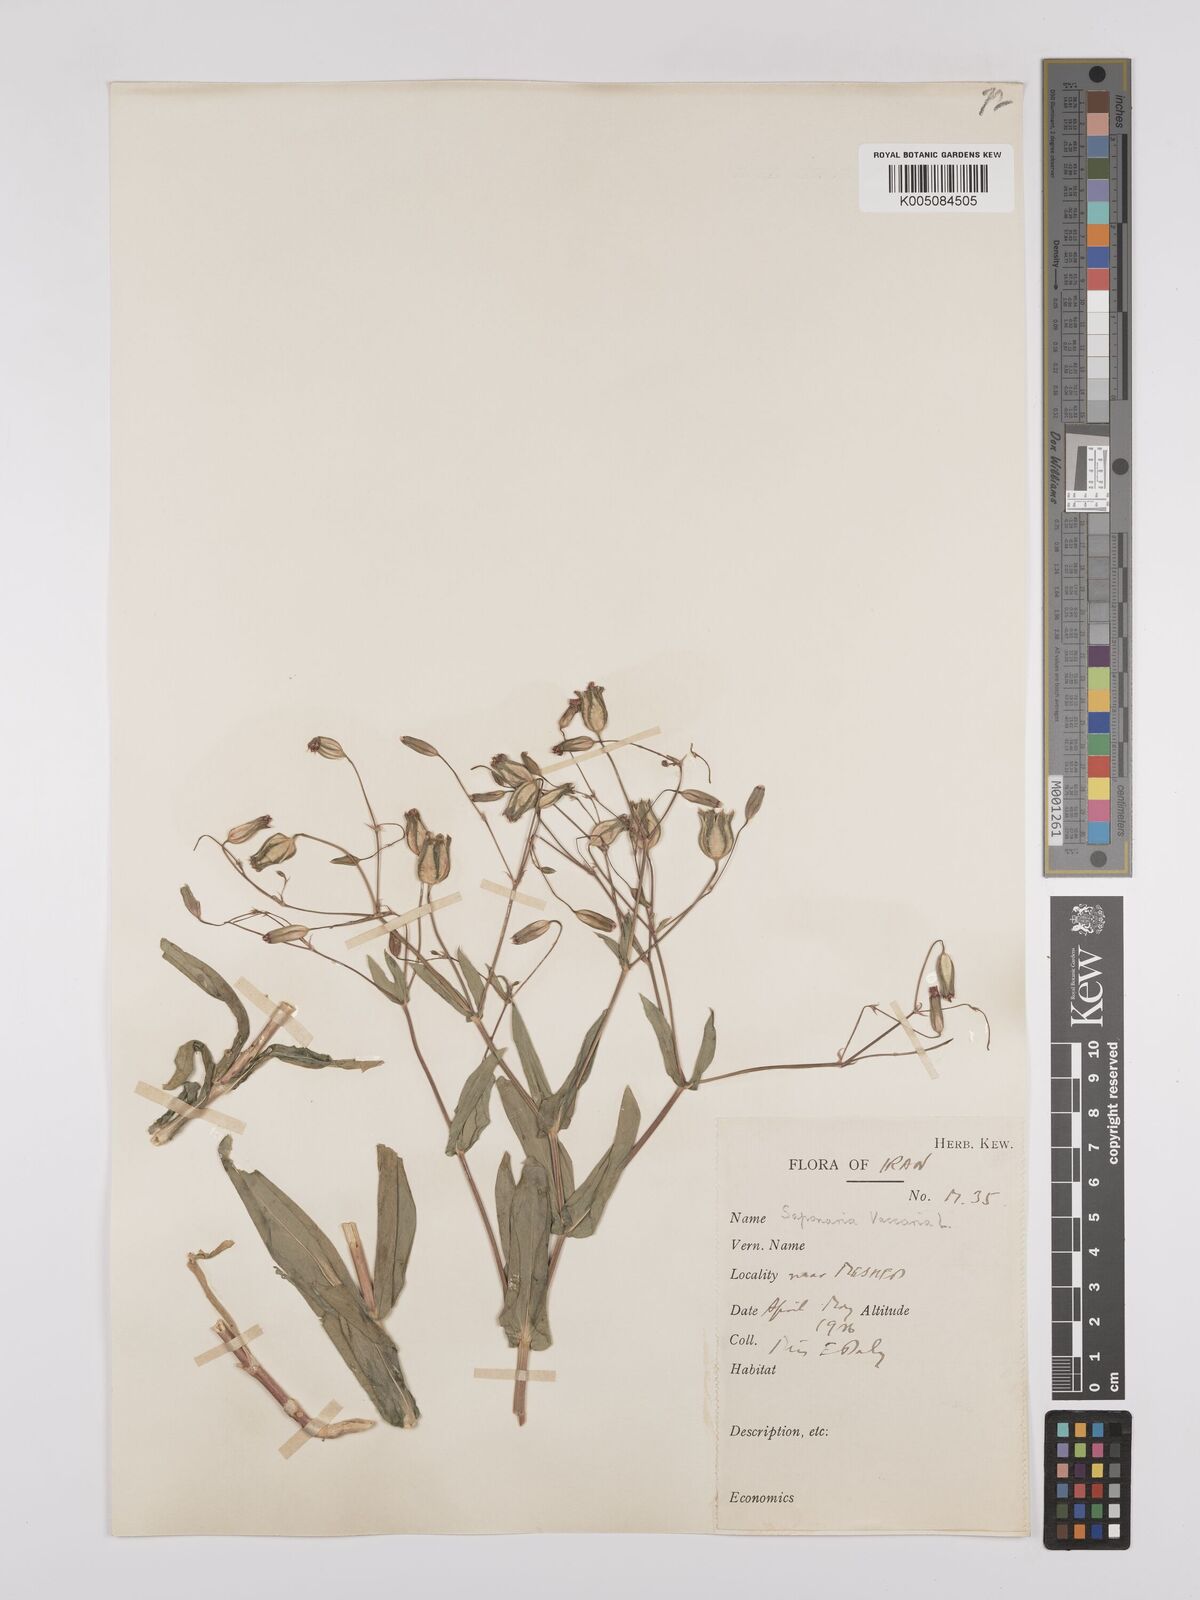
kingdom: Plantae
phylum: Tracheophyta
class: Magnoliopsida
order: Caryophyllales
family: Caryophyllaceae
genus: Gypsophila
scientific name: Gypsophila vaccaria
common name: Cow soapwort
